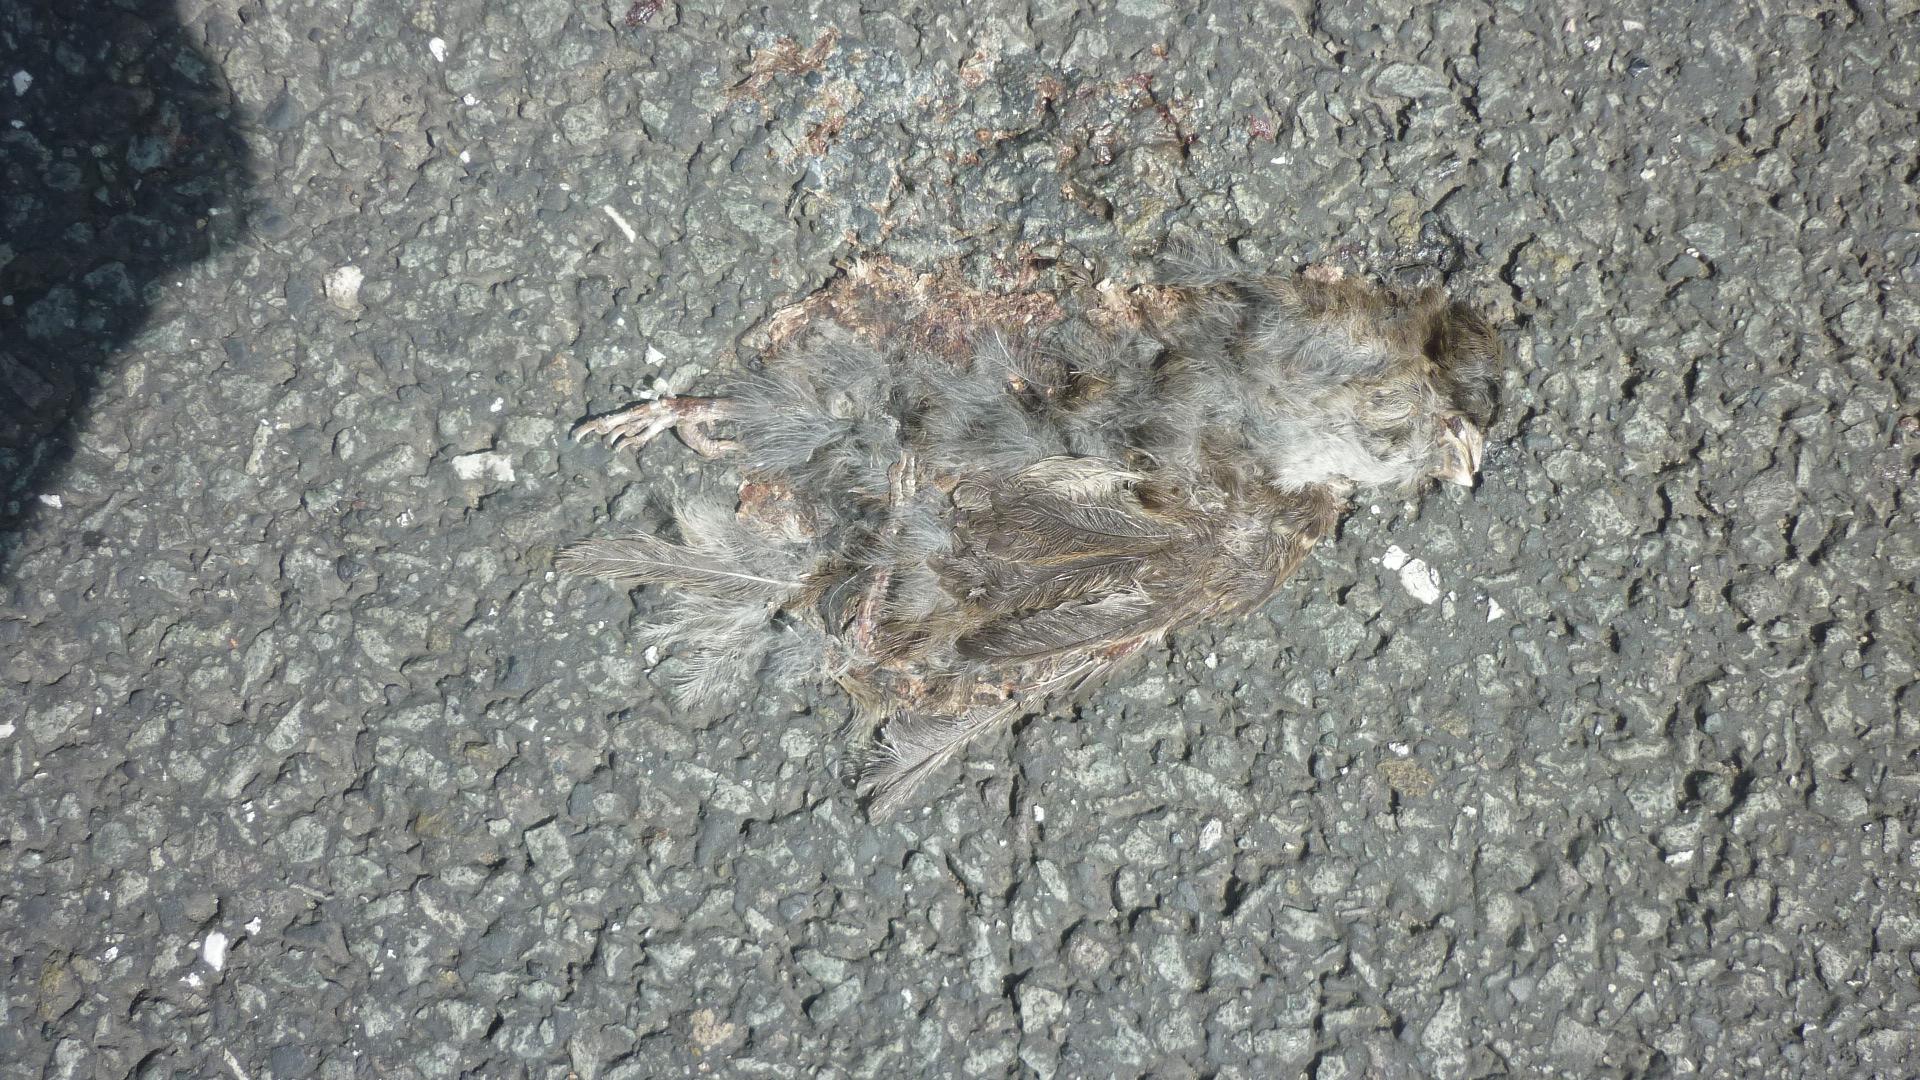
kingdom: Animalia
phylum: Chordata
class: Aves
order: Passeriformes
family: Passeridae
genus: Passer
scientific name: Passer
